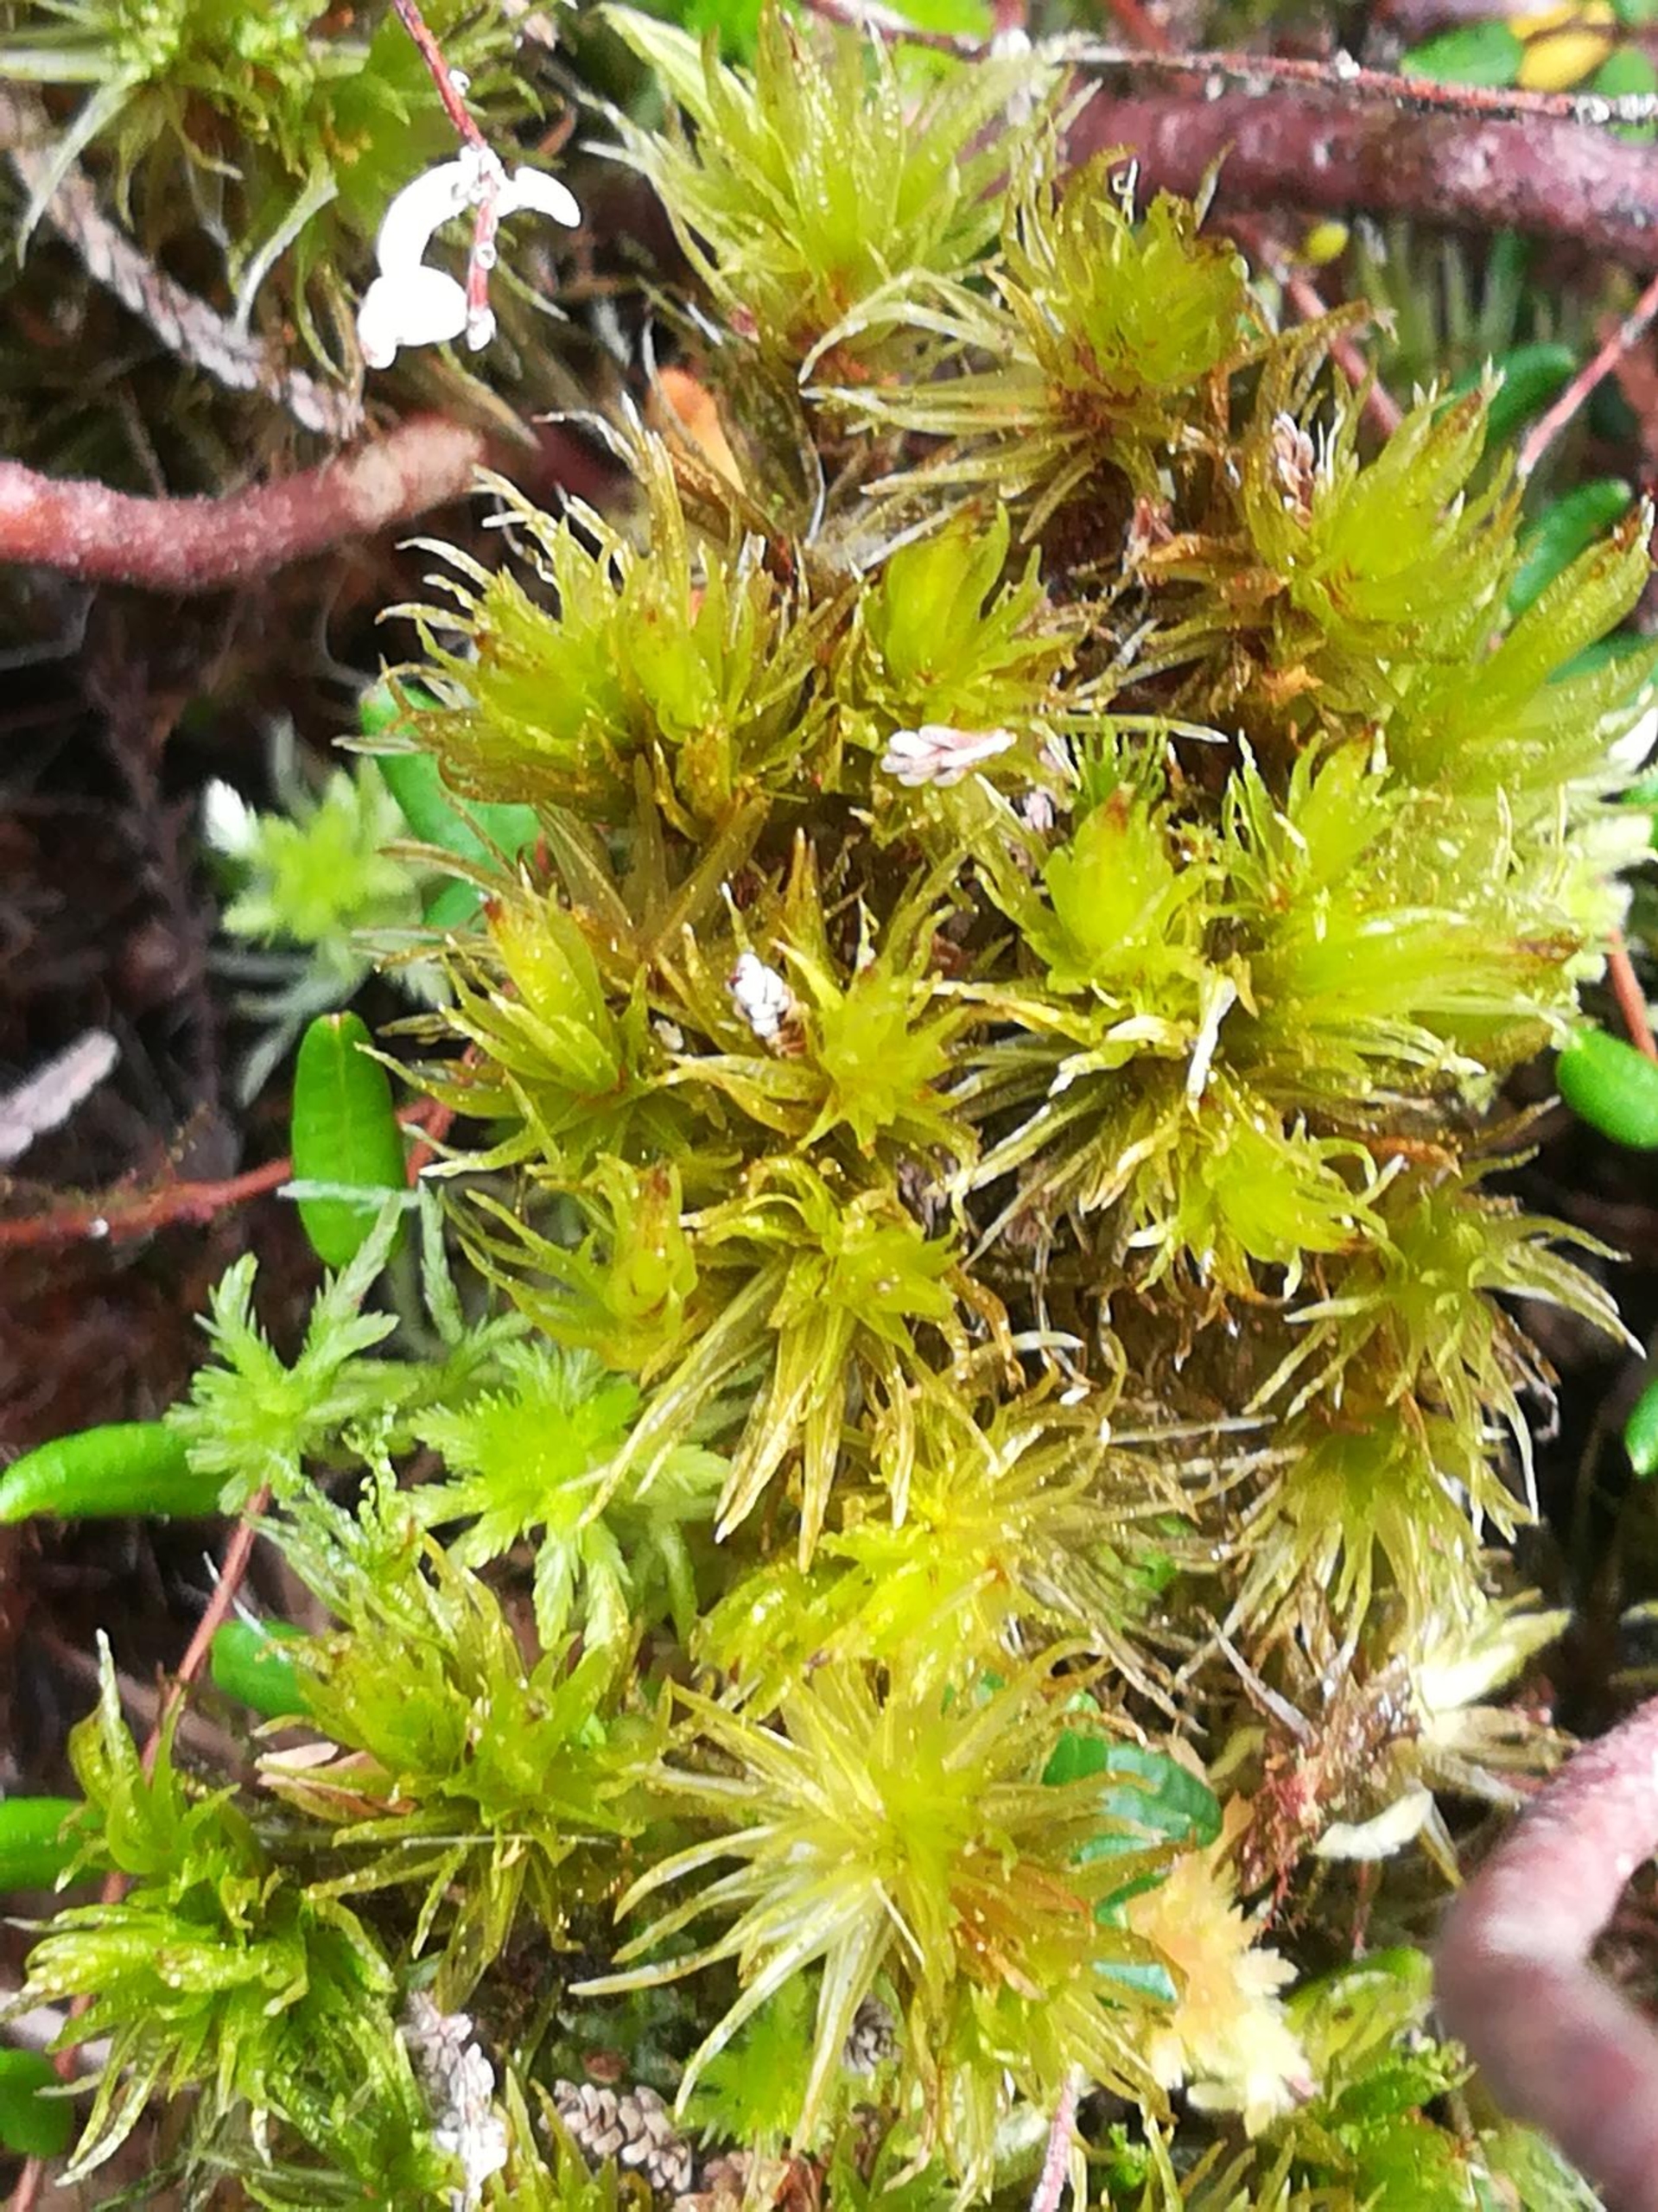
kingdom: Plantae
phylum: Bryophyta
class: Bryopsida
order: Dicranales
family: Dicranaceae
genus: Dicranum
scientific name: Dicranum undulatum
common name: Butbladet kløvtand
